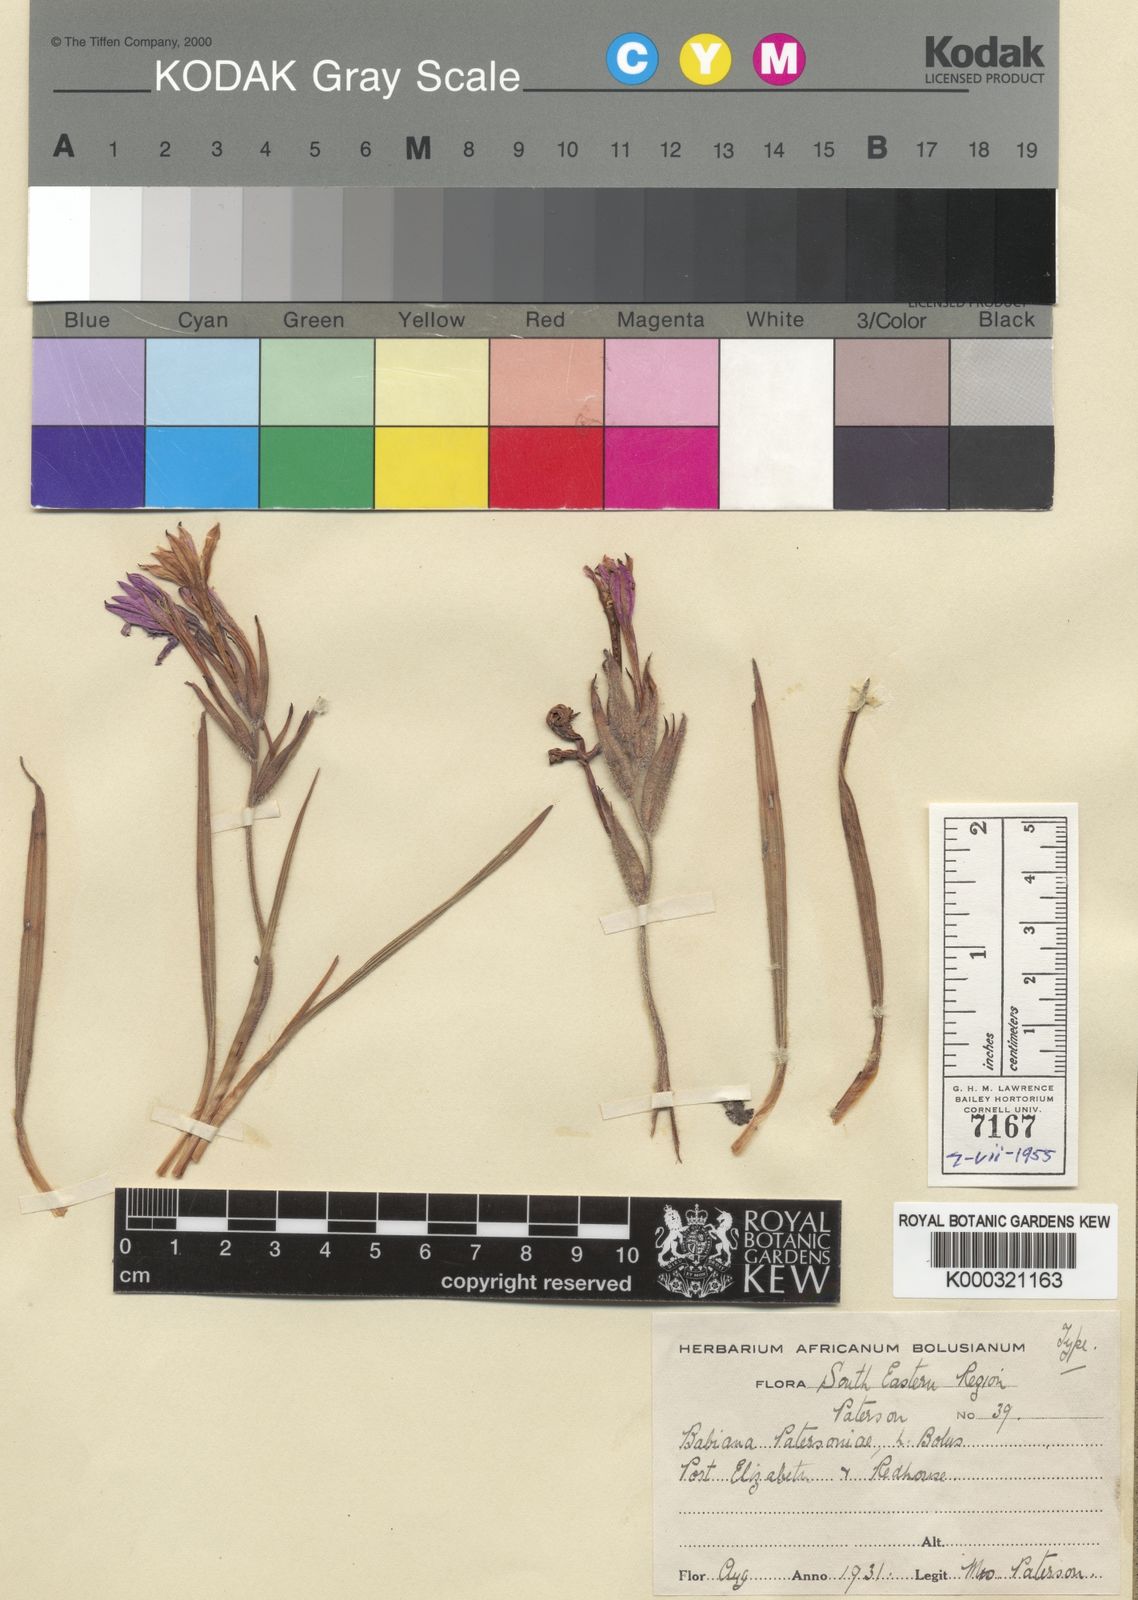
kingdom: Plantae
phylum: Tracheophyta
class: Liliopsida
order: Asparagales
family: Iridaceae
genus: Babiana
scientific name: Babiana patersoniae
